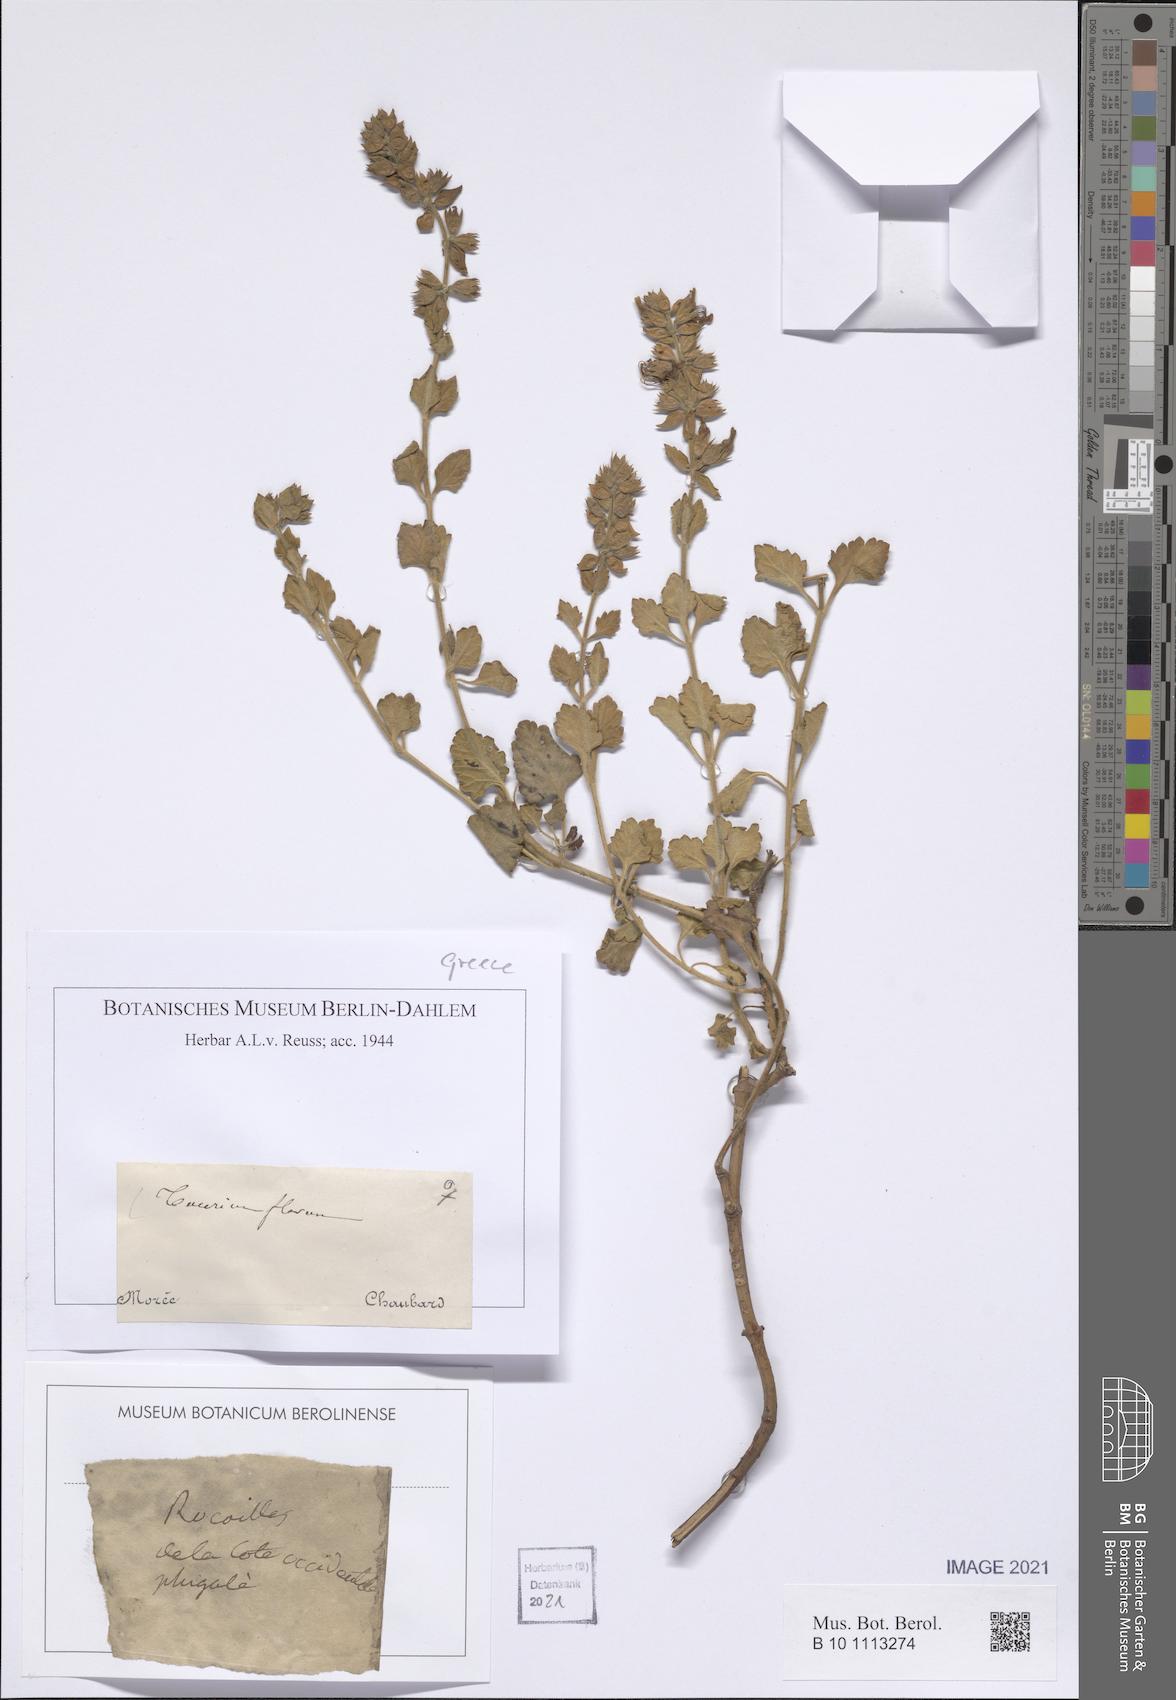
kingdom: Plantae
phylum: Tracheophyta
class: Magnoliopsida
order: Lamiales
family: Lamiaceae
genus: Teucrium
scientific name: Teucrium flavum
